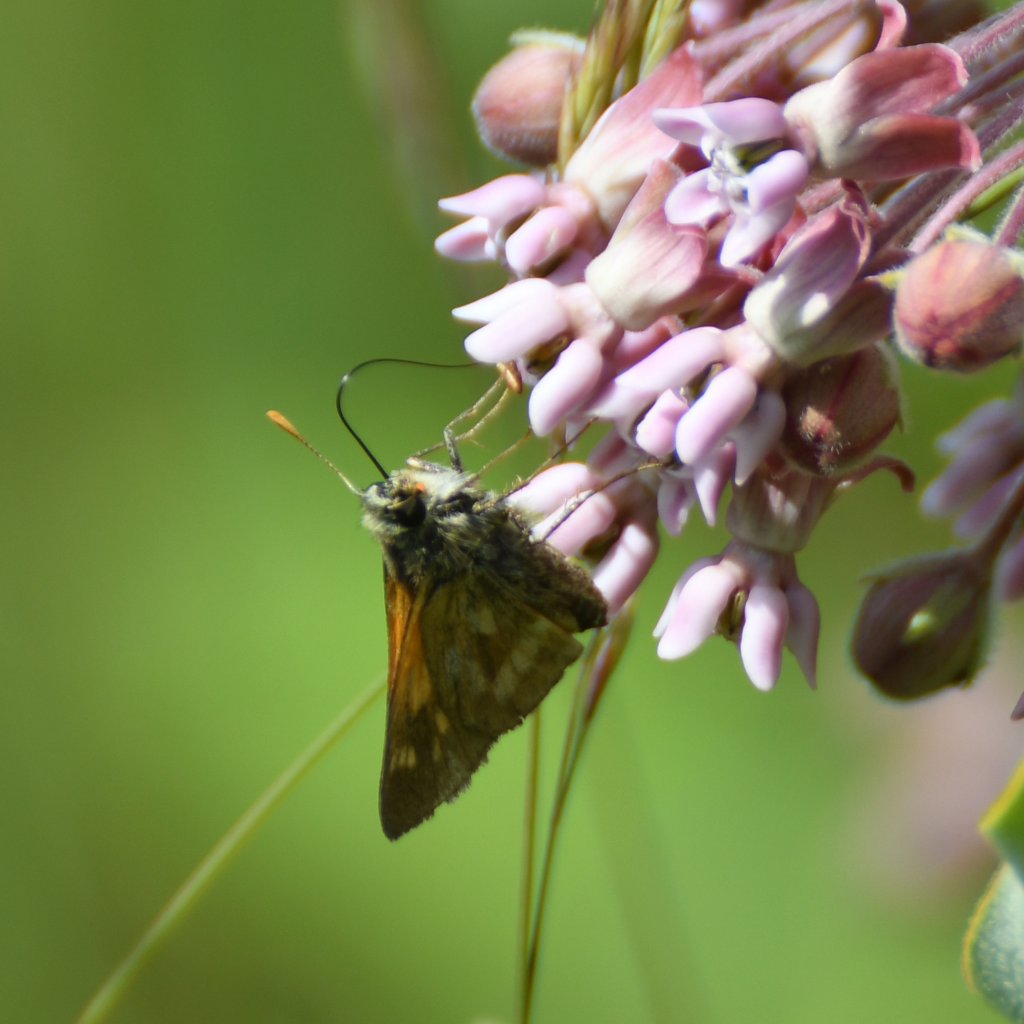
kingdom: Animalia
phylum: Arthropoda
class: Insecta
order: Lepidoptera
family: Hesperiidae
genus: Polites
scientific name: Polites
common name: Long Dash Skipper
